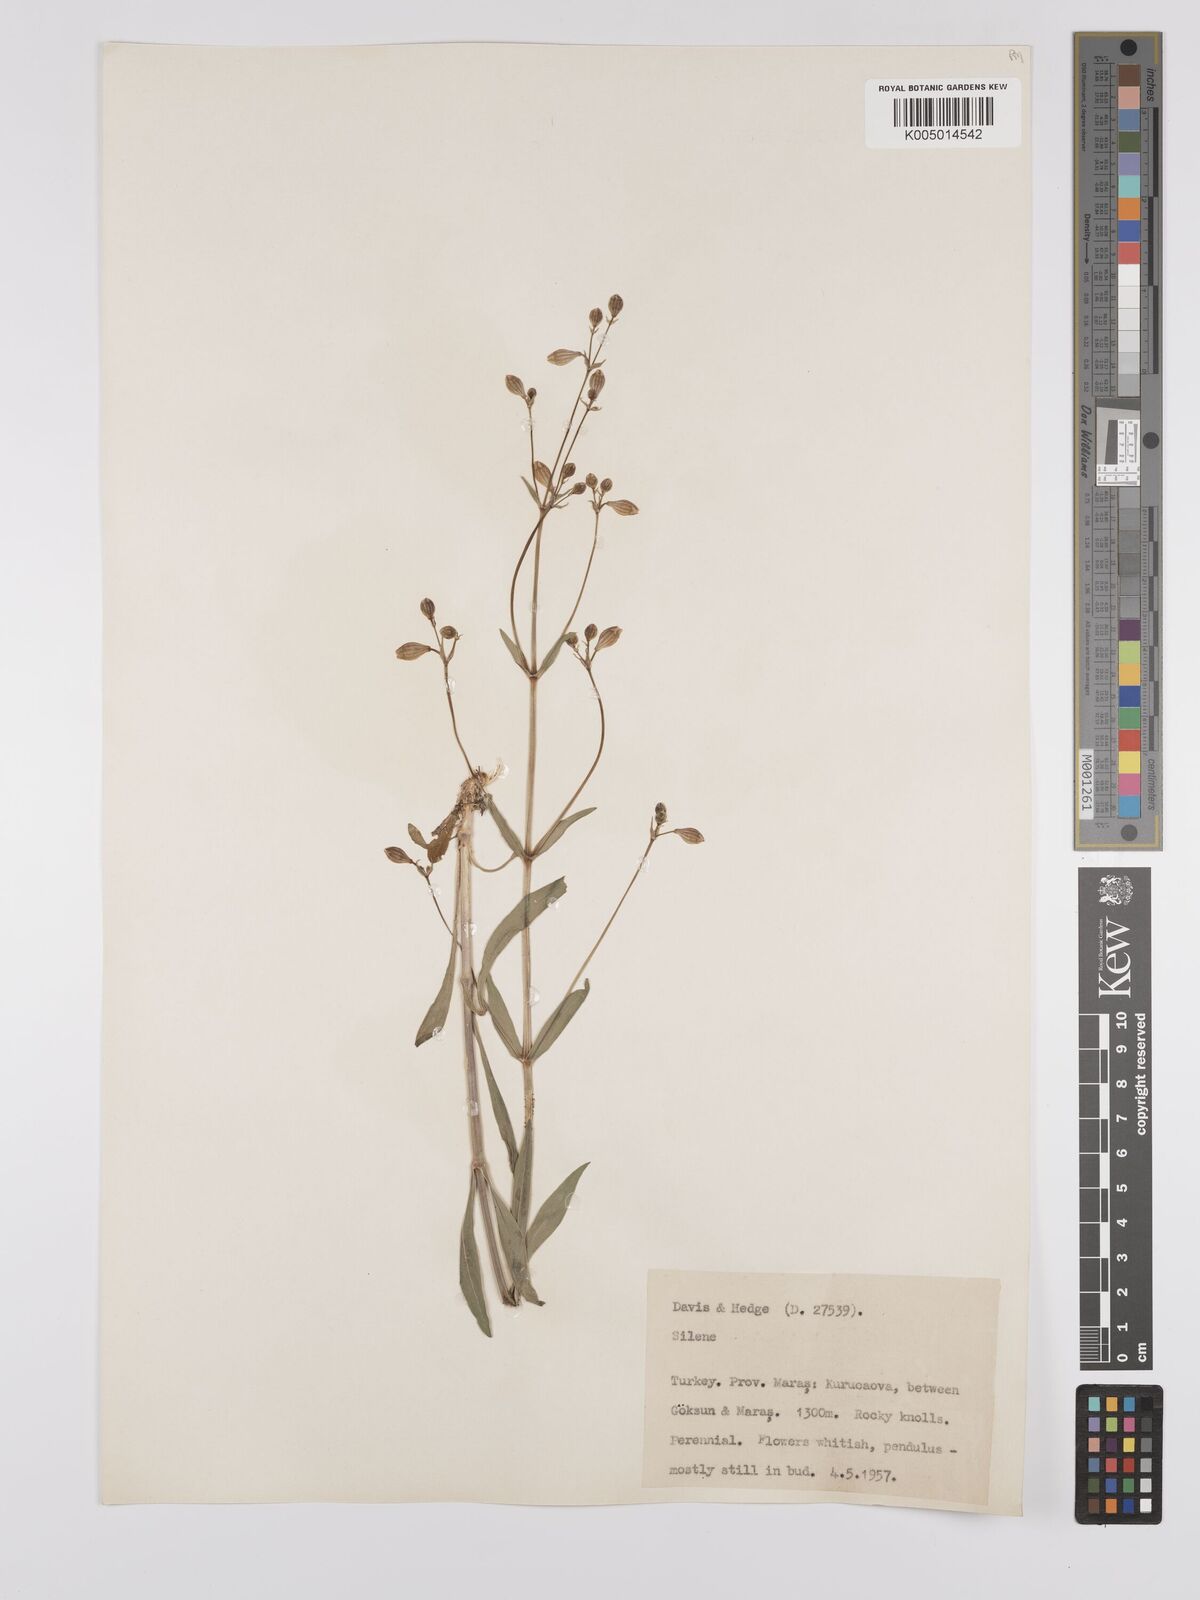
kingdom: Plantae
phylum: Tracheophyta
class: Magnoliopsida
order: Caryophyllales
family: Caryophyllaceae
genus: Silene
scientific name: Silene
